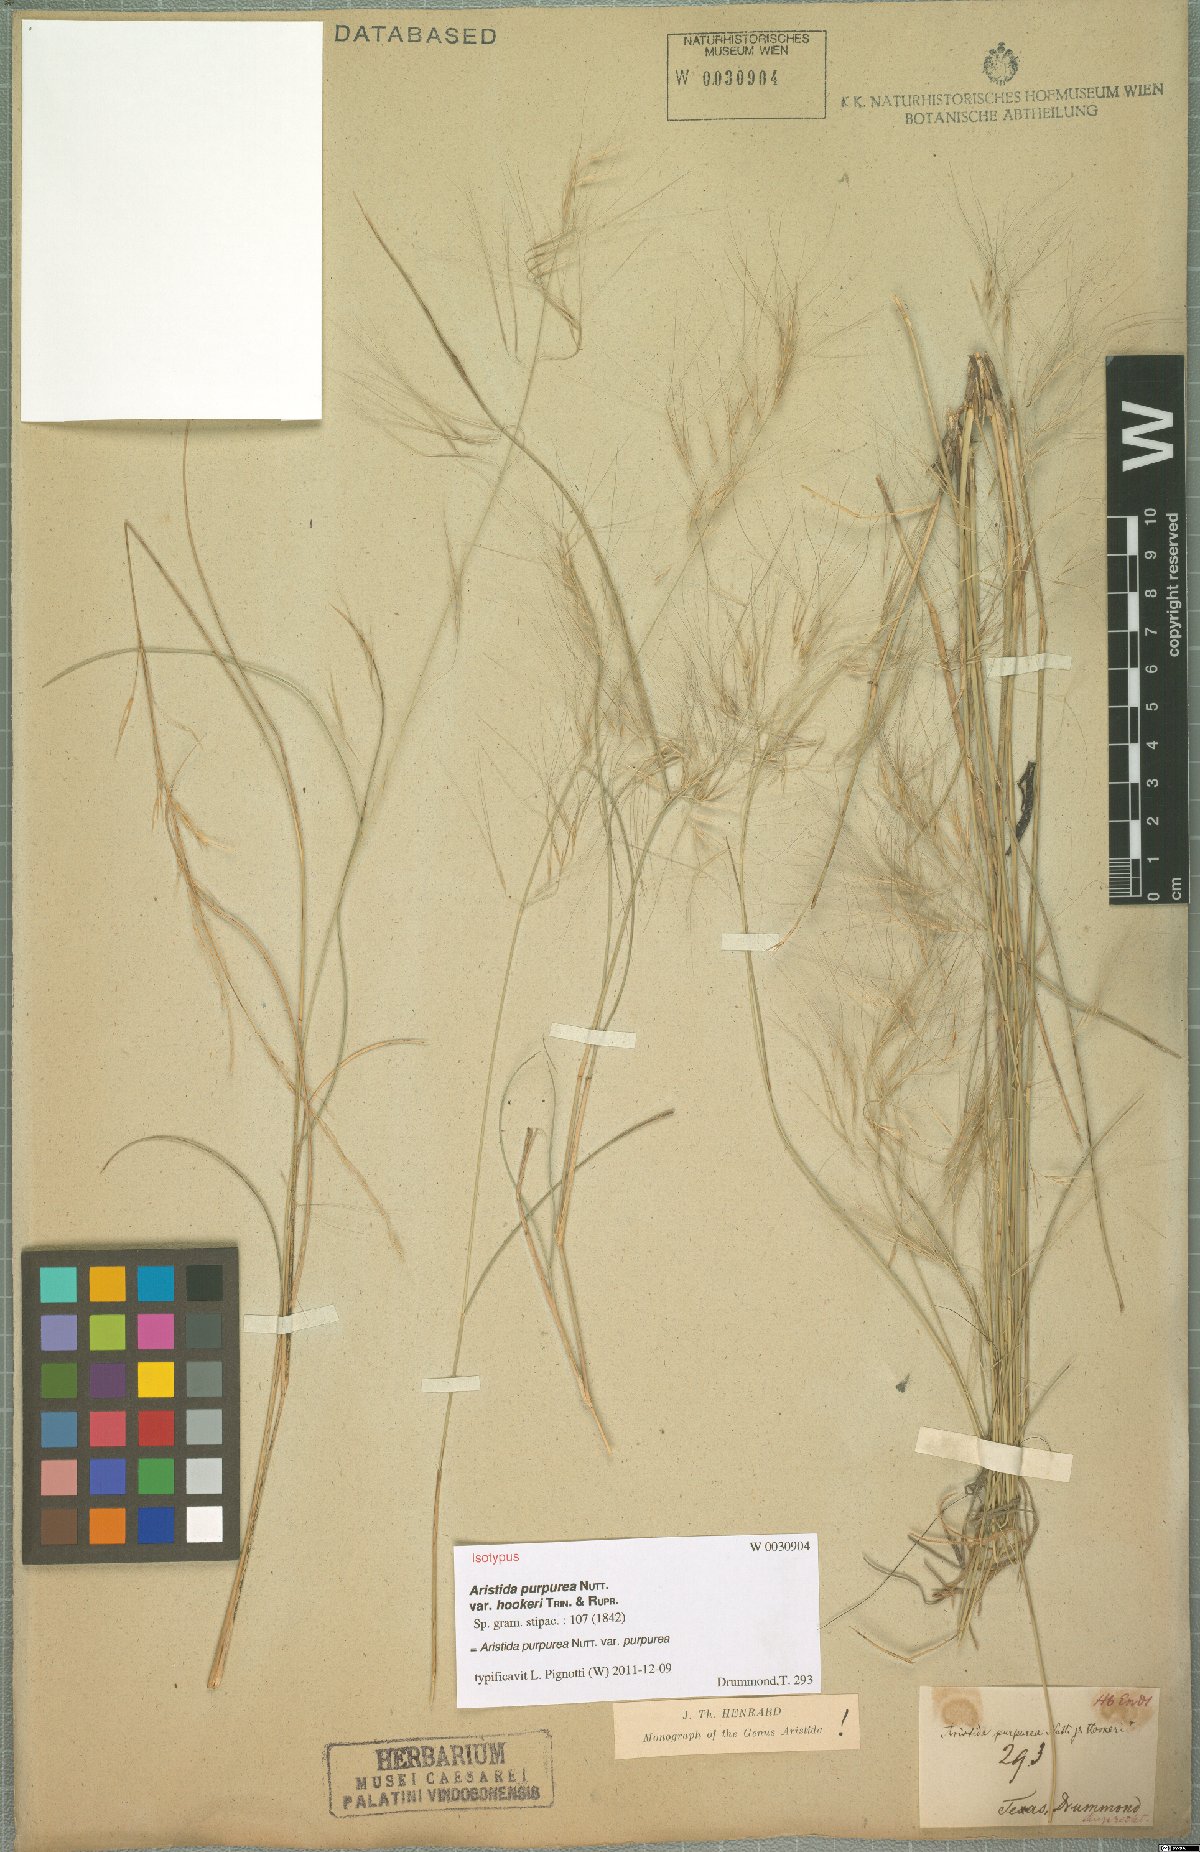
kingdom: Plantae
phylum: Tracheophyta
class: Liliopsida
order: Poales
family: Poaceae
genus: Aristida
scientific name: Aristida purpurea
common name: Purple threeawn
